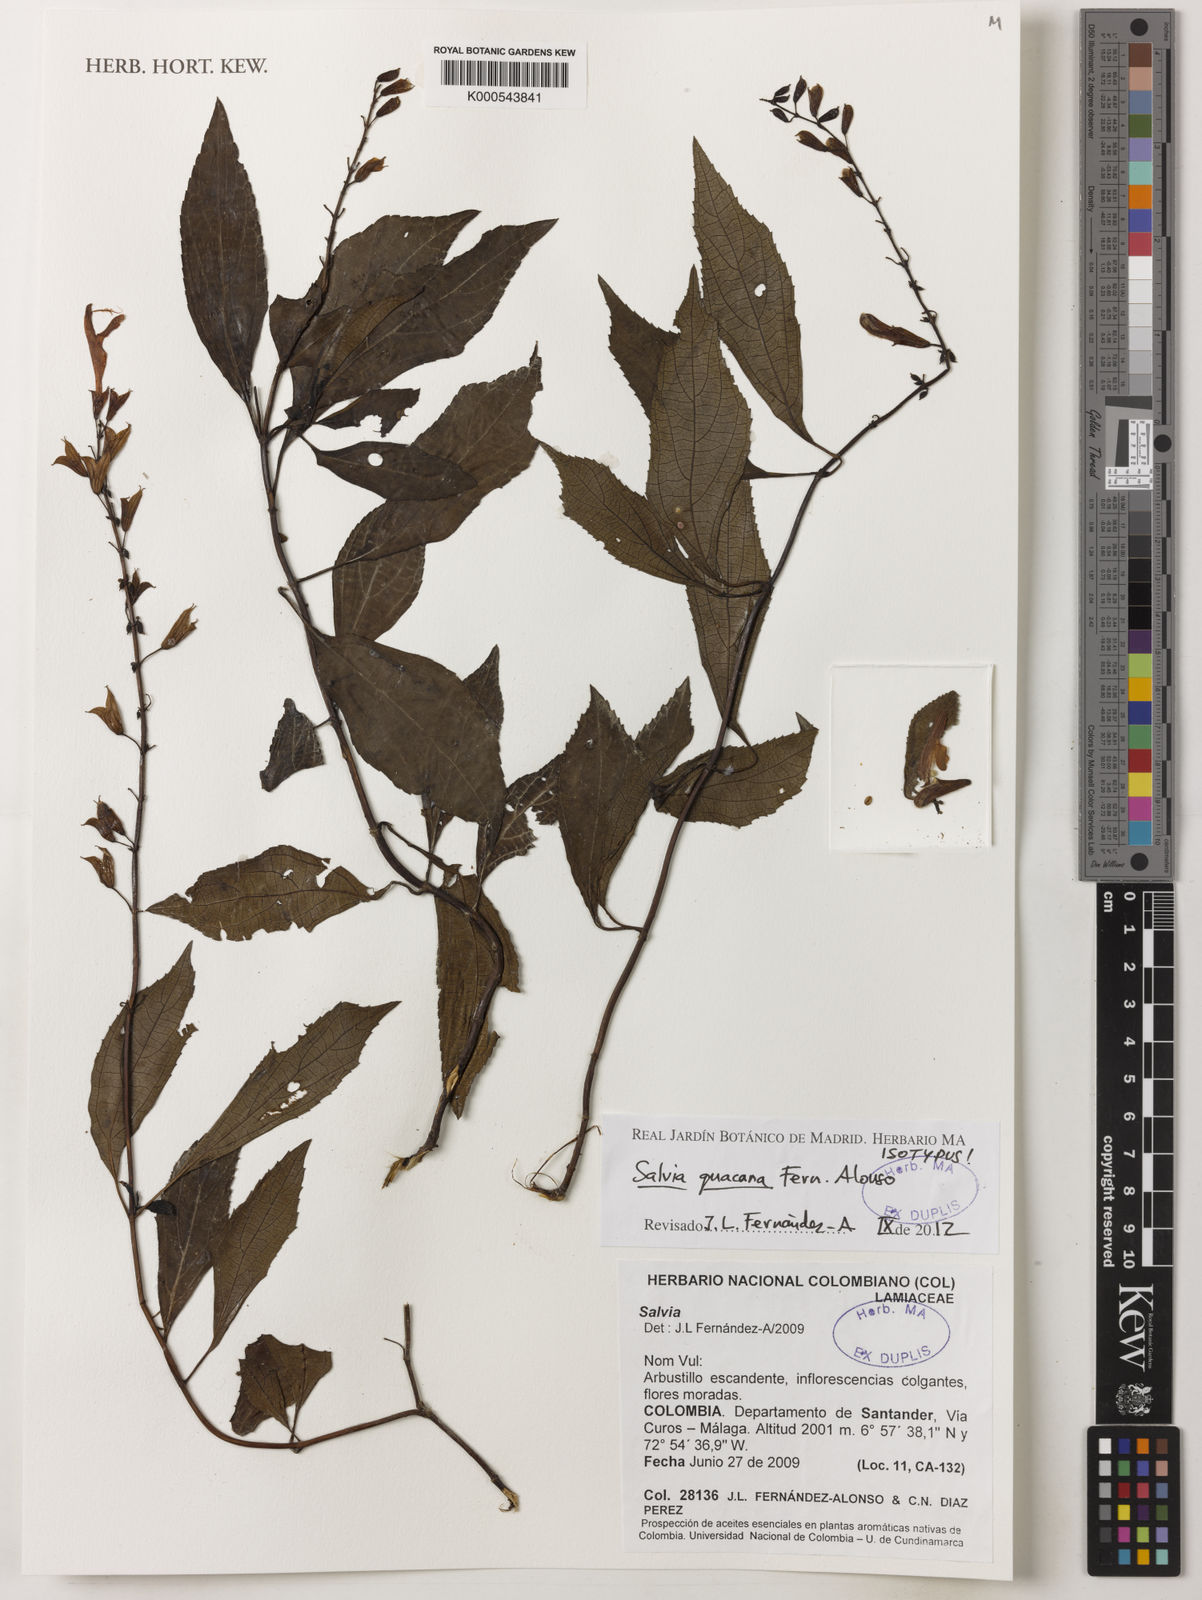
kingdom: Plantae
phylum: Tracheophyta
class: Magnoliopsida
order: Lamiales
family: Lamiaceae
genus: Salvia
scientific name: Salvia guacana
